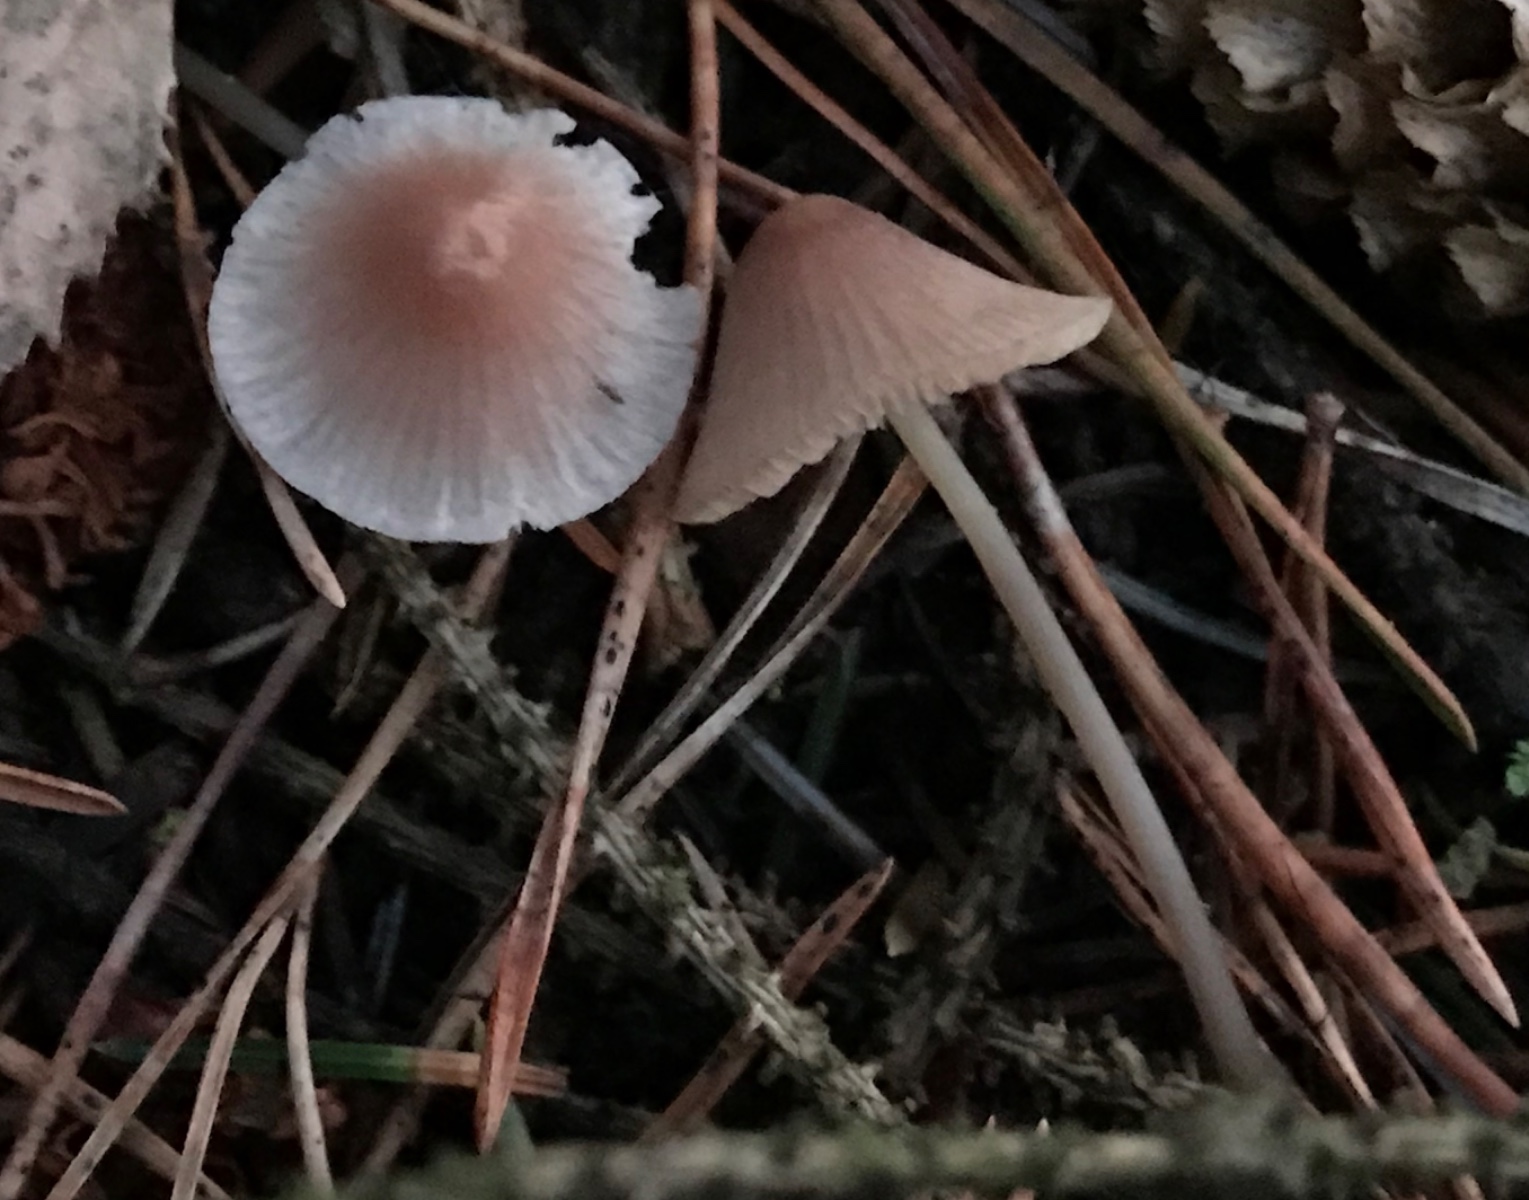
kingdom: Fungi
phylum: Basidiomycota
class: Agaricomycetes
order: Agaricales
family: Mycenaceae
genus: Mycena
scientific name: Mycena metata
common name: rødlig huesvamp
